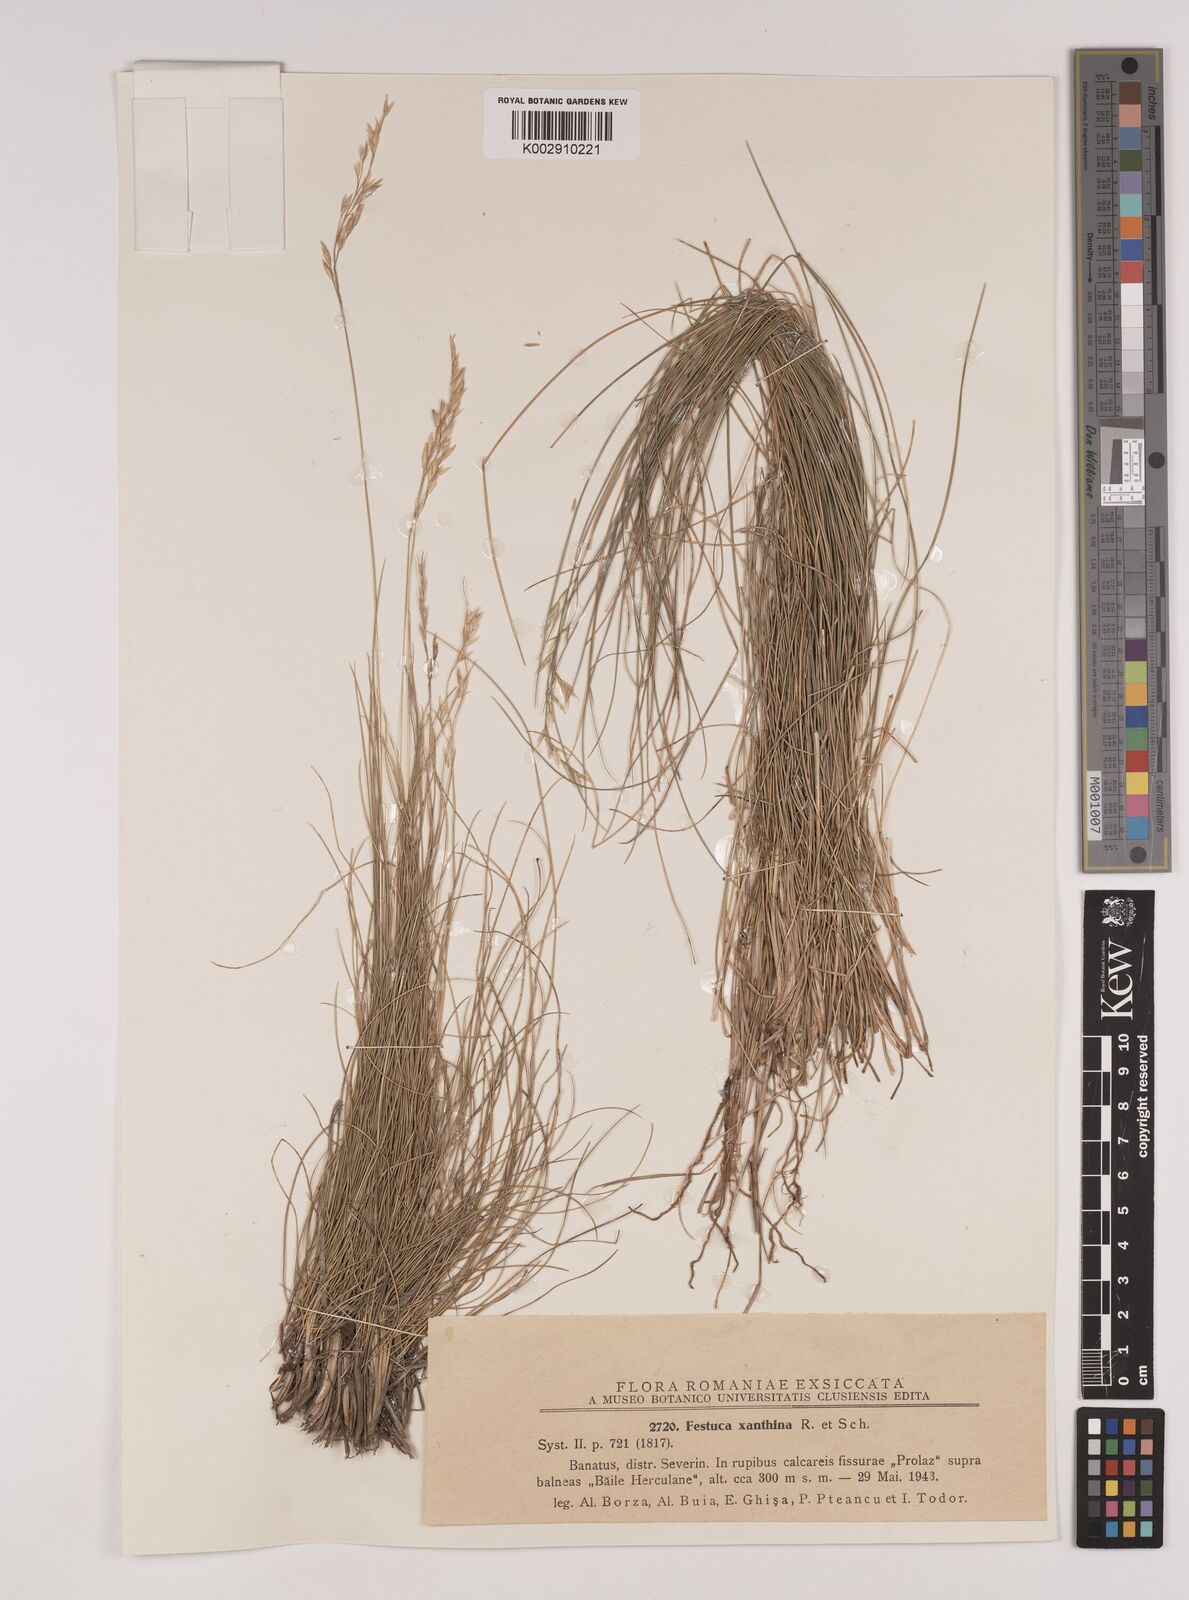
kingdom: Plantae
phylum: Tracheophyta
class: Liliopsida
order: Poales
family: Poaceae
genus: Festuca
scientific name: Festuca xanthina
